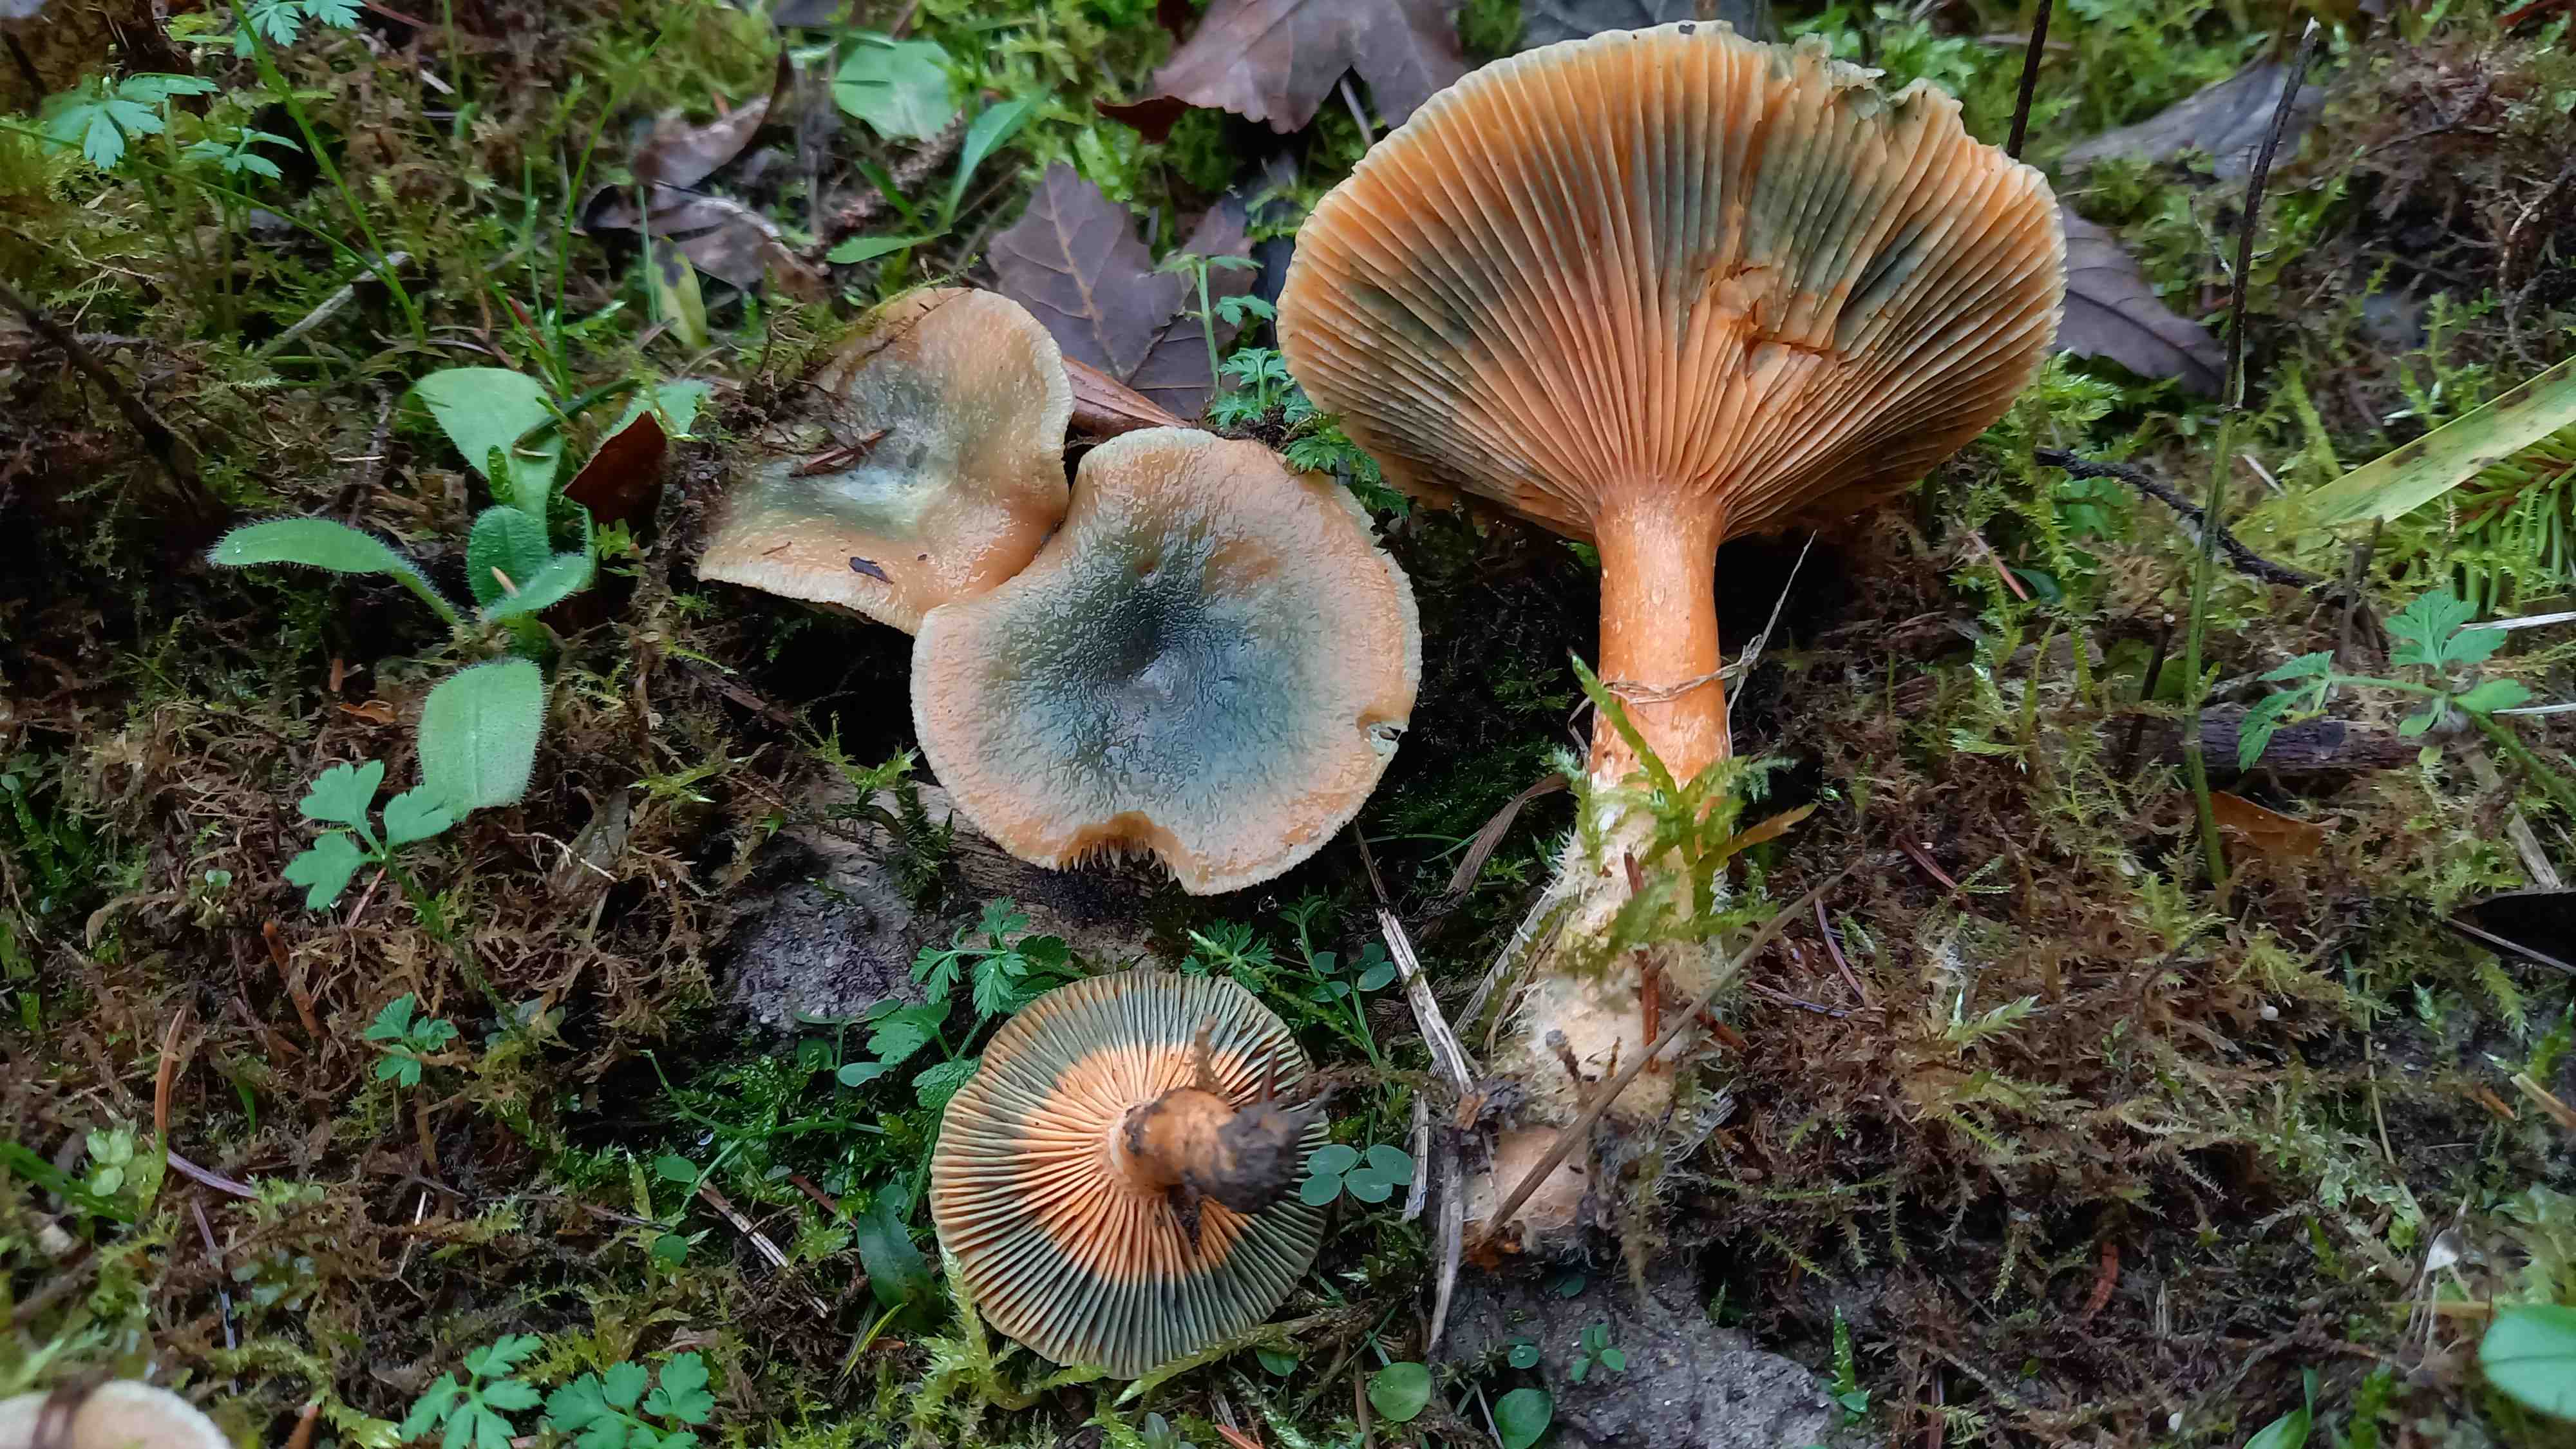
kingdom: Fungi
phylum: Basidiomycota
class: Agaricomycetes
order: Russulales
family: Russulaceae
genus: Lactarius
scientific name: Lactarius deterrimus
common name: gran-mælkehat
